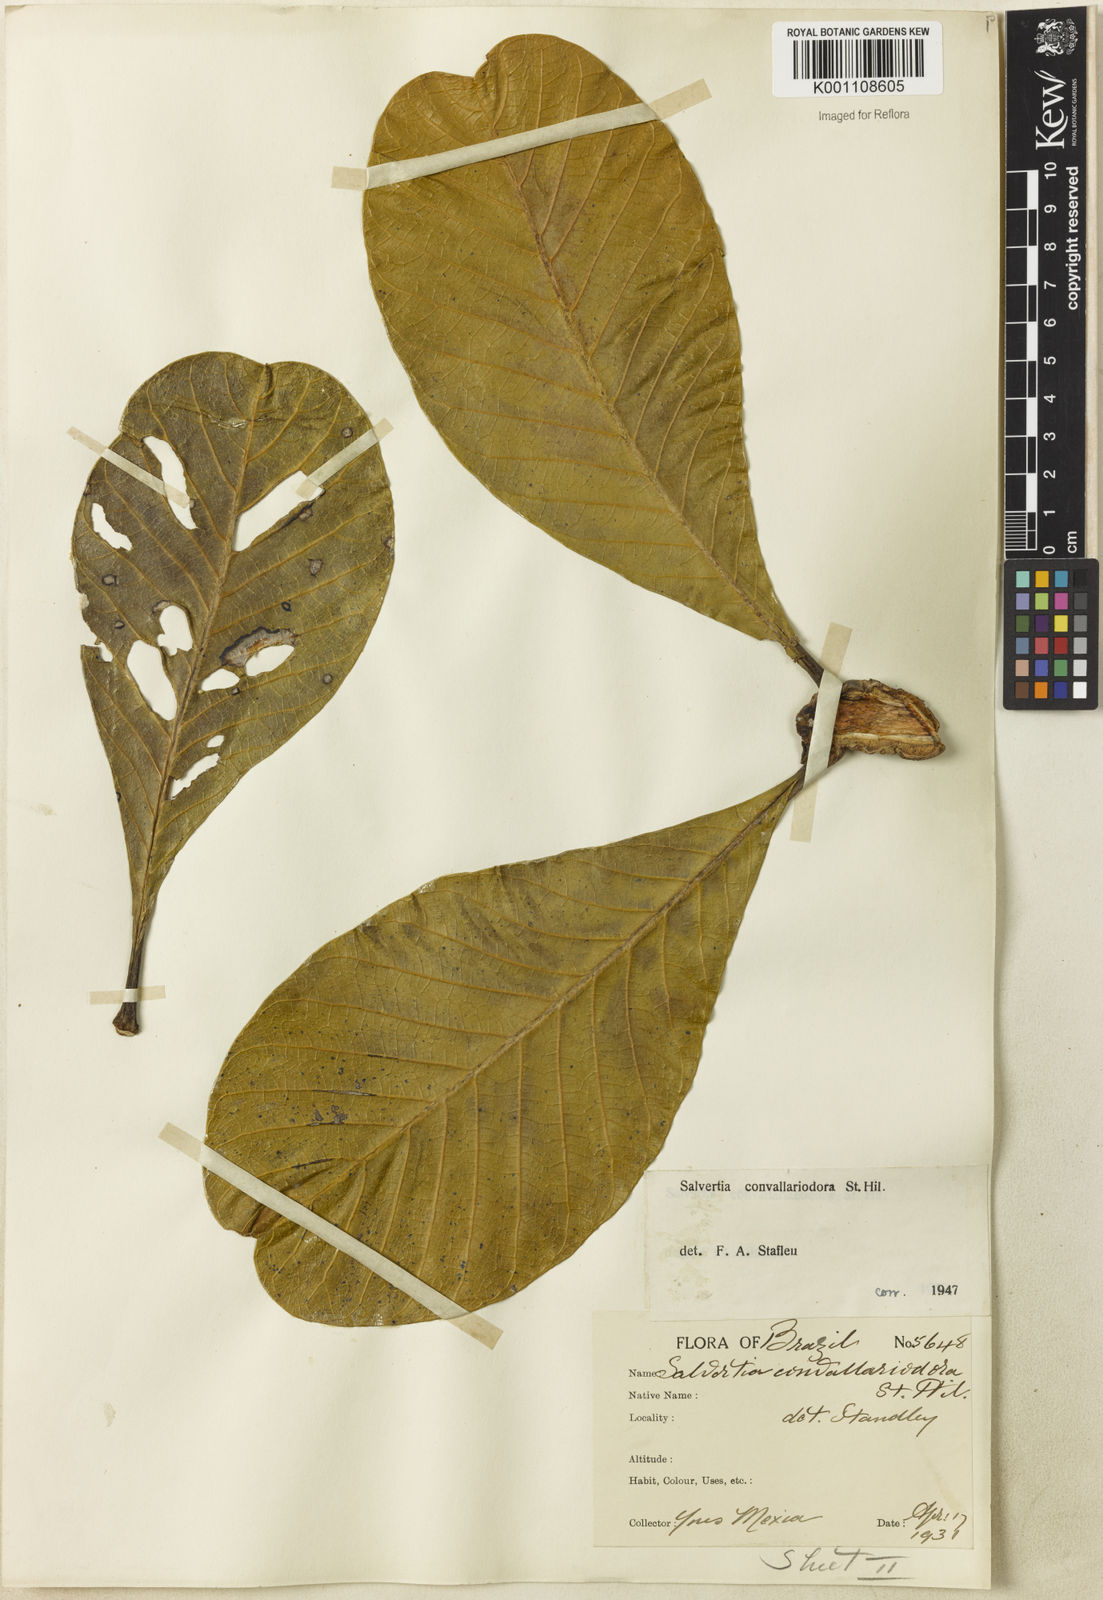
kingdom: Plantae
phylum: Tracheophyta
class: Magnoliopsida
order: Myrtales
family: Vochysiaceae
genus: Salvertia
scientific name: Salvertia convallariodora
